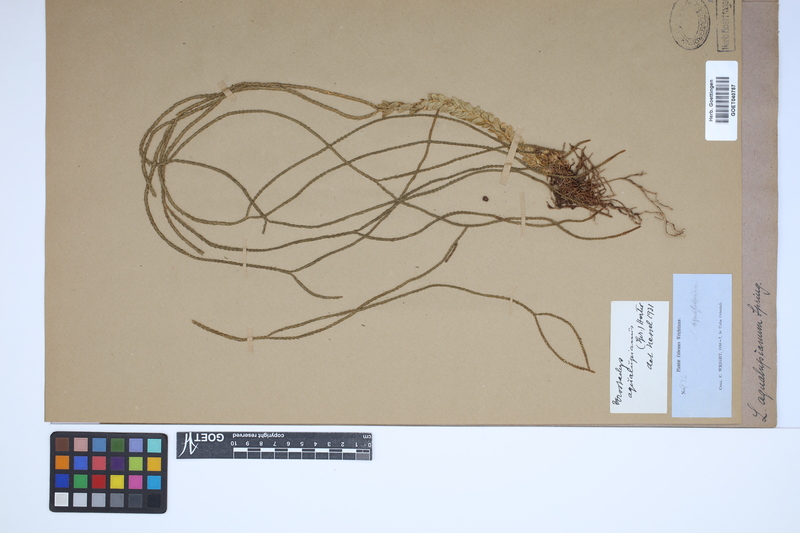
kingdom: Plantae
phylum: Tracheophyta
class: Lycopodiopsida
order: Lycopodiales
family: Lycopodiaceae
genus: Phlegmariurus
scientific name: Phlegmariurus aqualupianus
